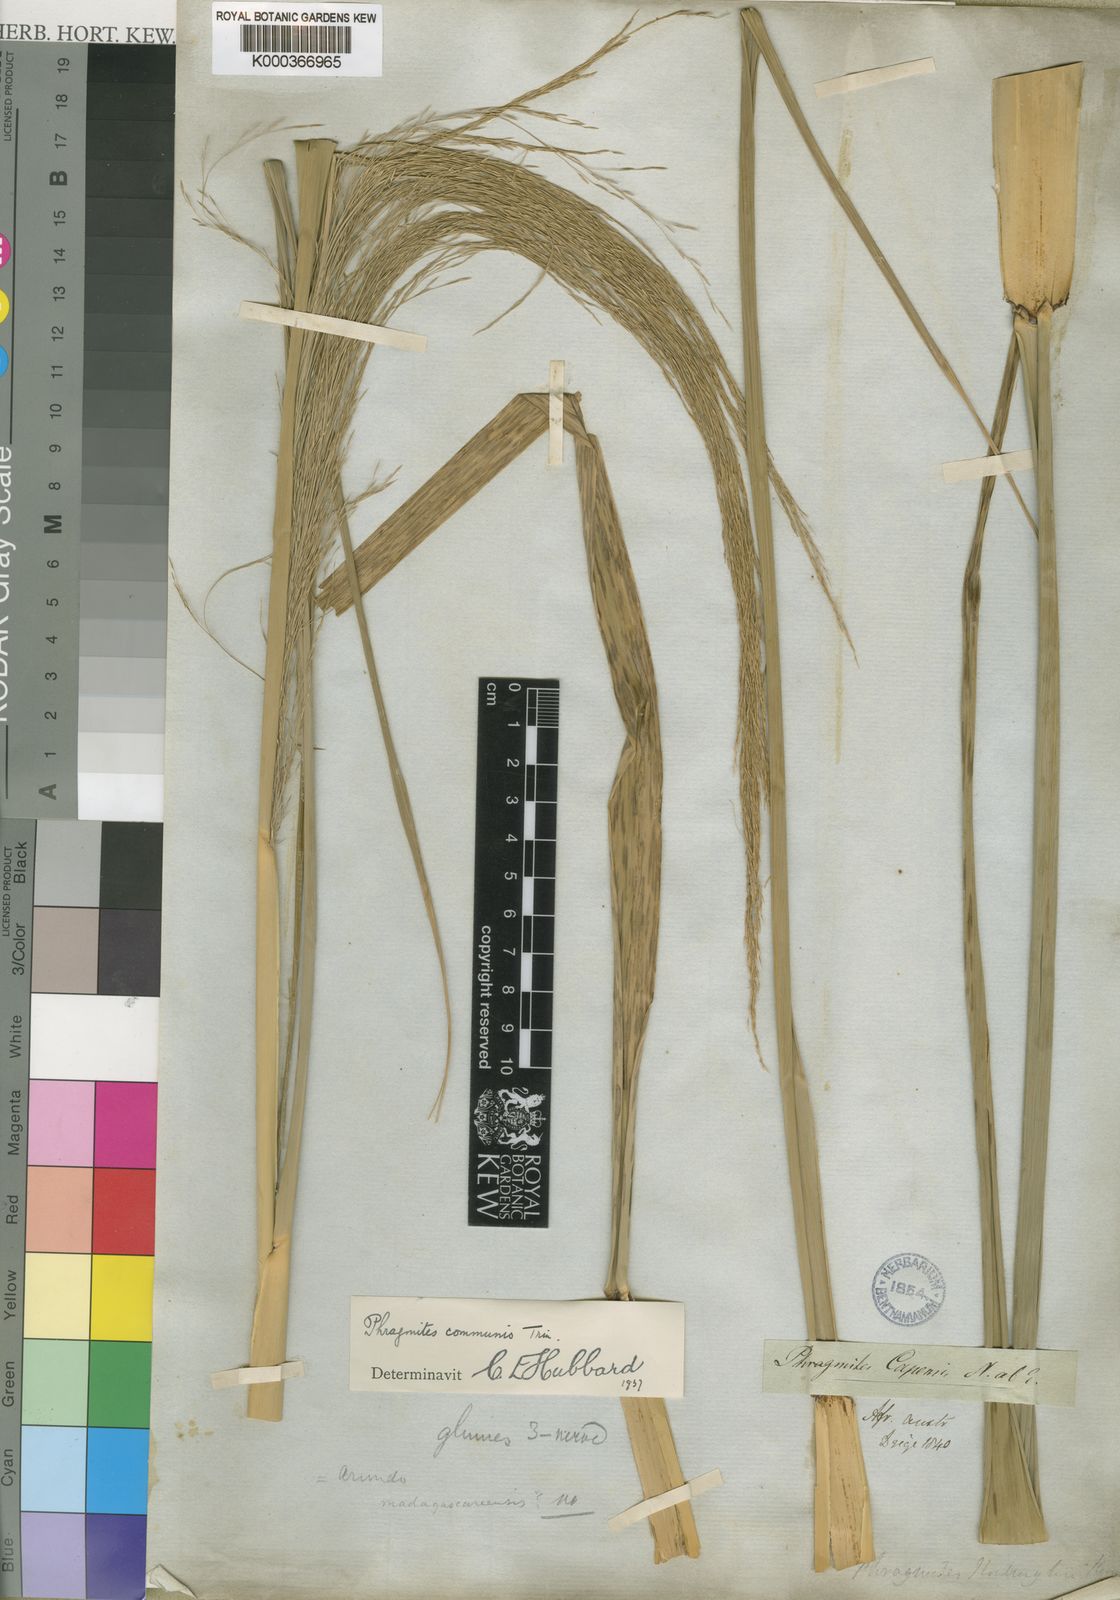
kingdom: Plantae
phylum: Tracheophyta
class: Liliopsida
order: Poales
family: Poaceae
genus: Phragmites
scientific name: Phragmites australis
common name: Common reed
